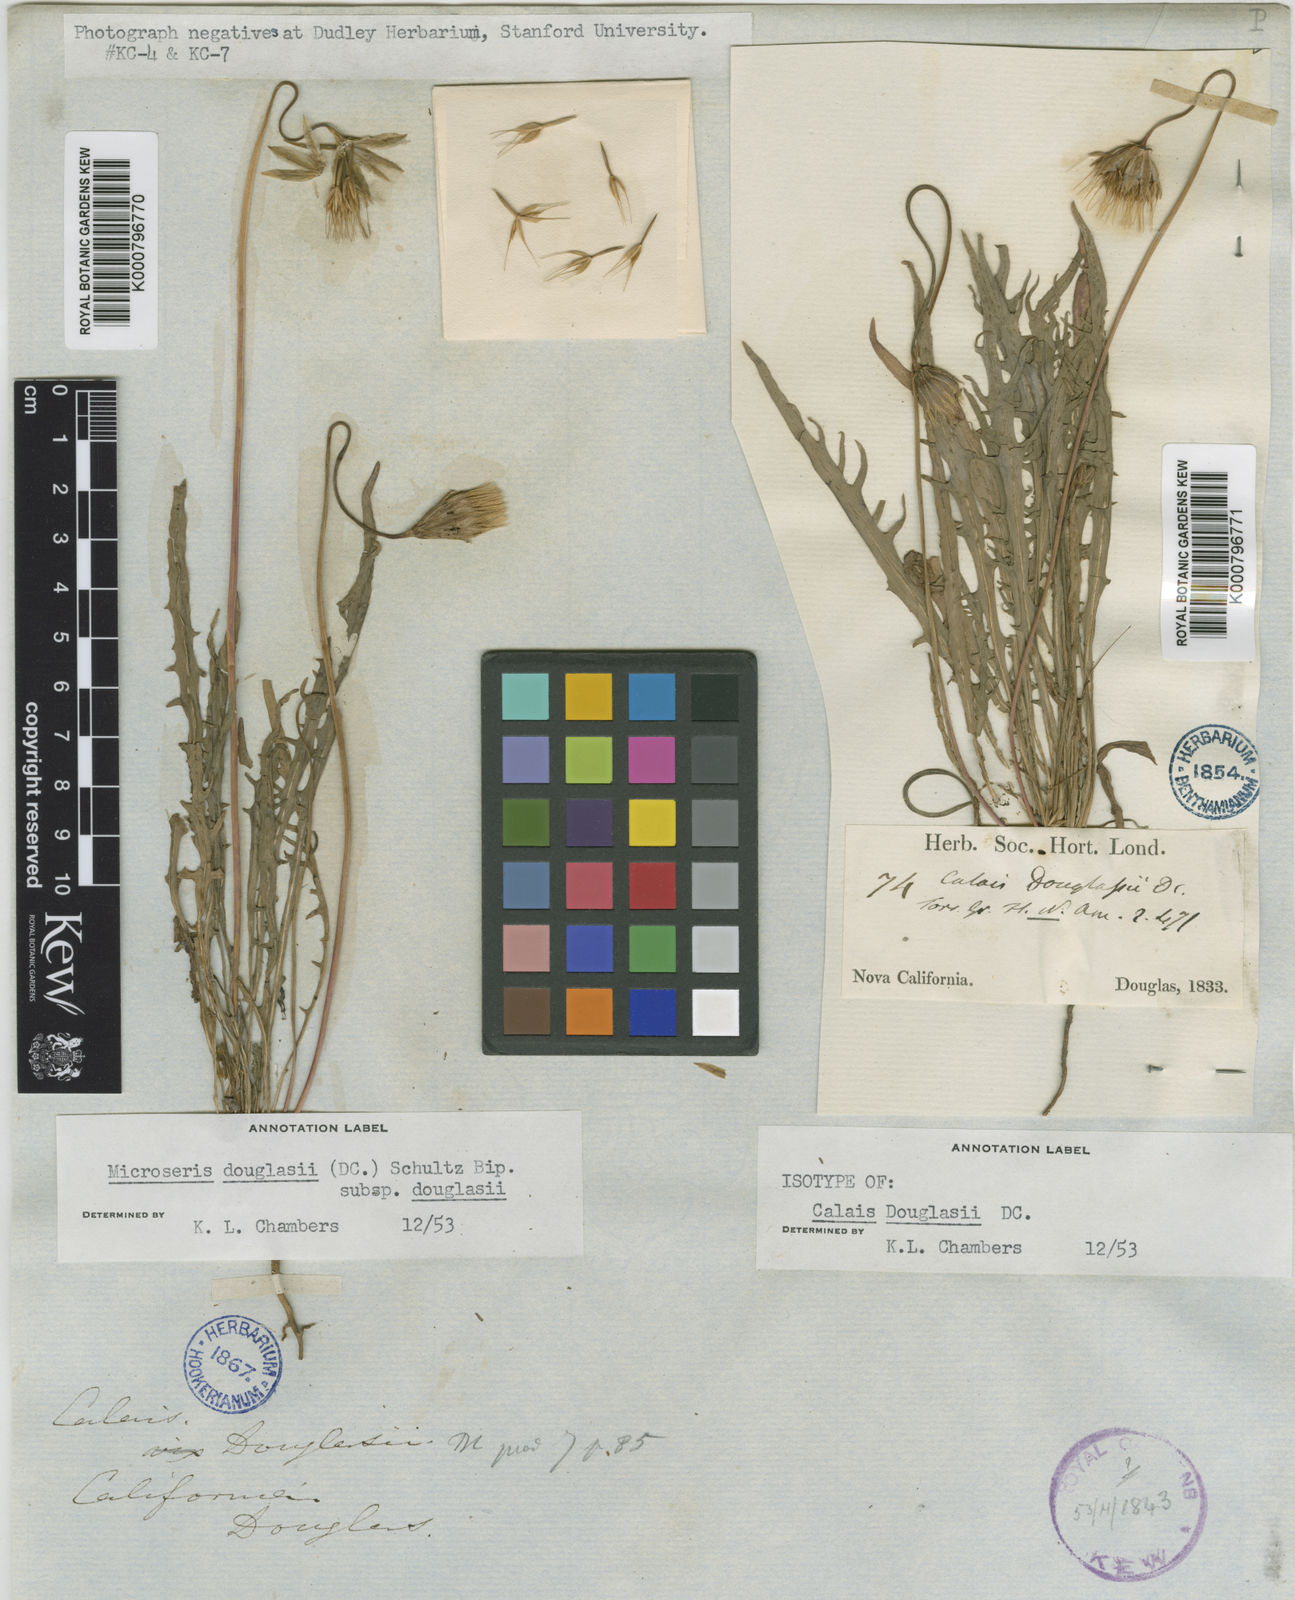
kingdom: Plantae
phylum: Tracheophyta
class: Magnoliopsida
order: Asterales
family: Asteraceae
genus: Microseris
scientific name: Microseris douglasii
